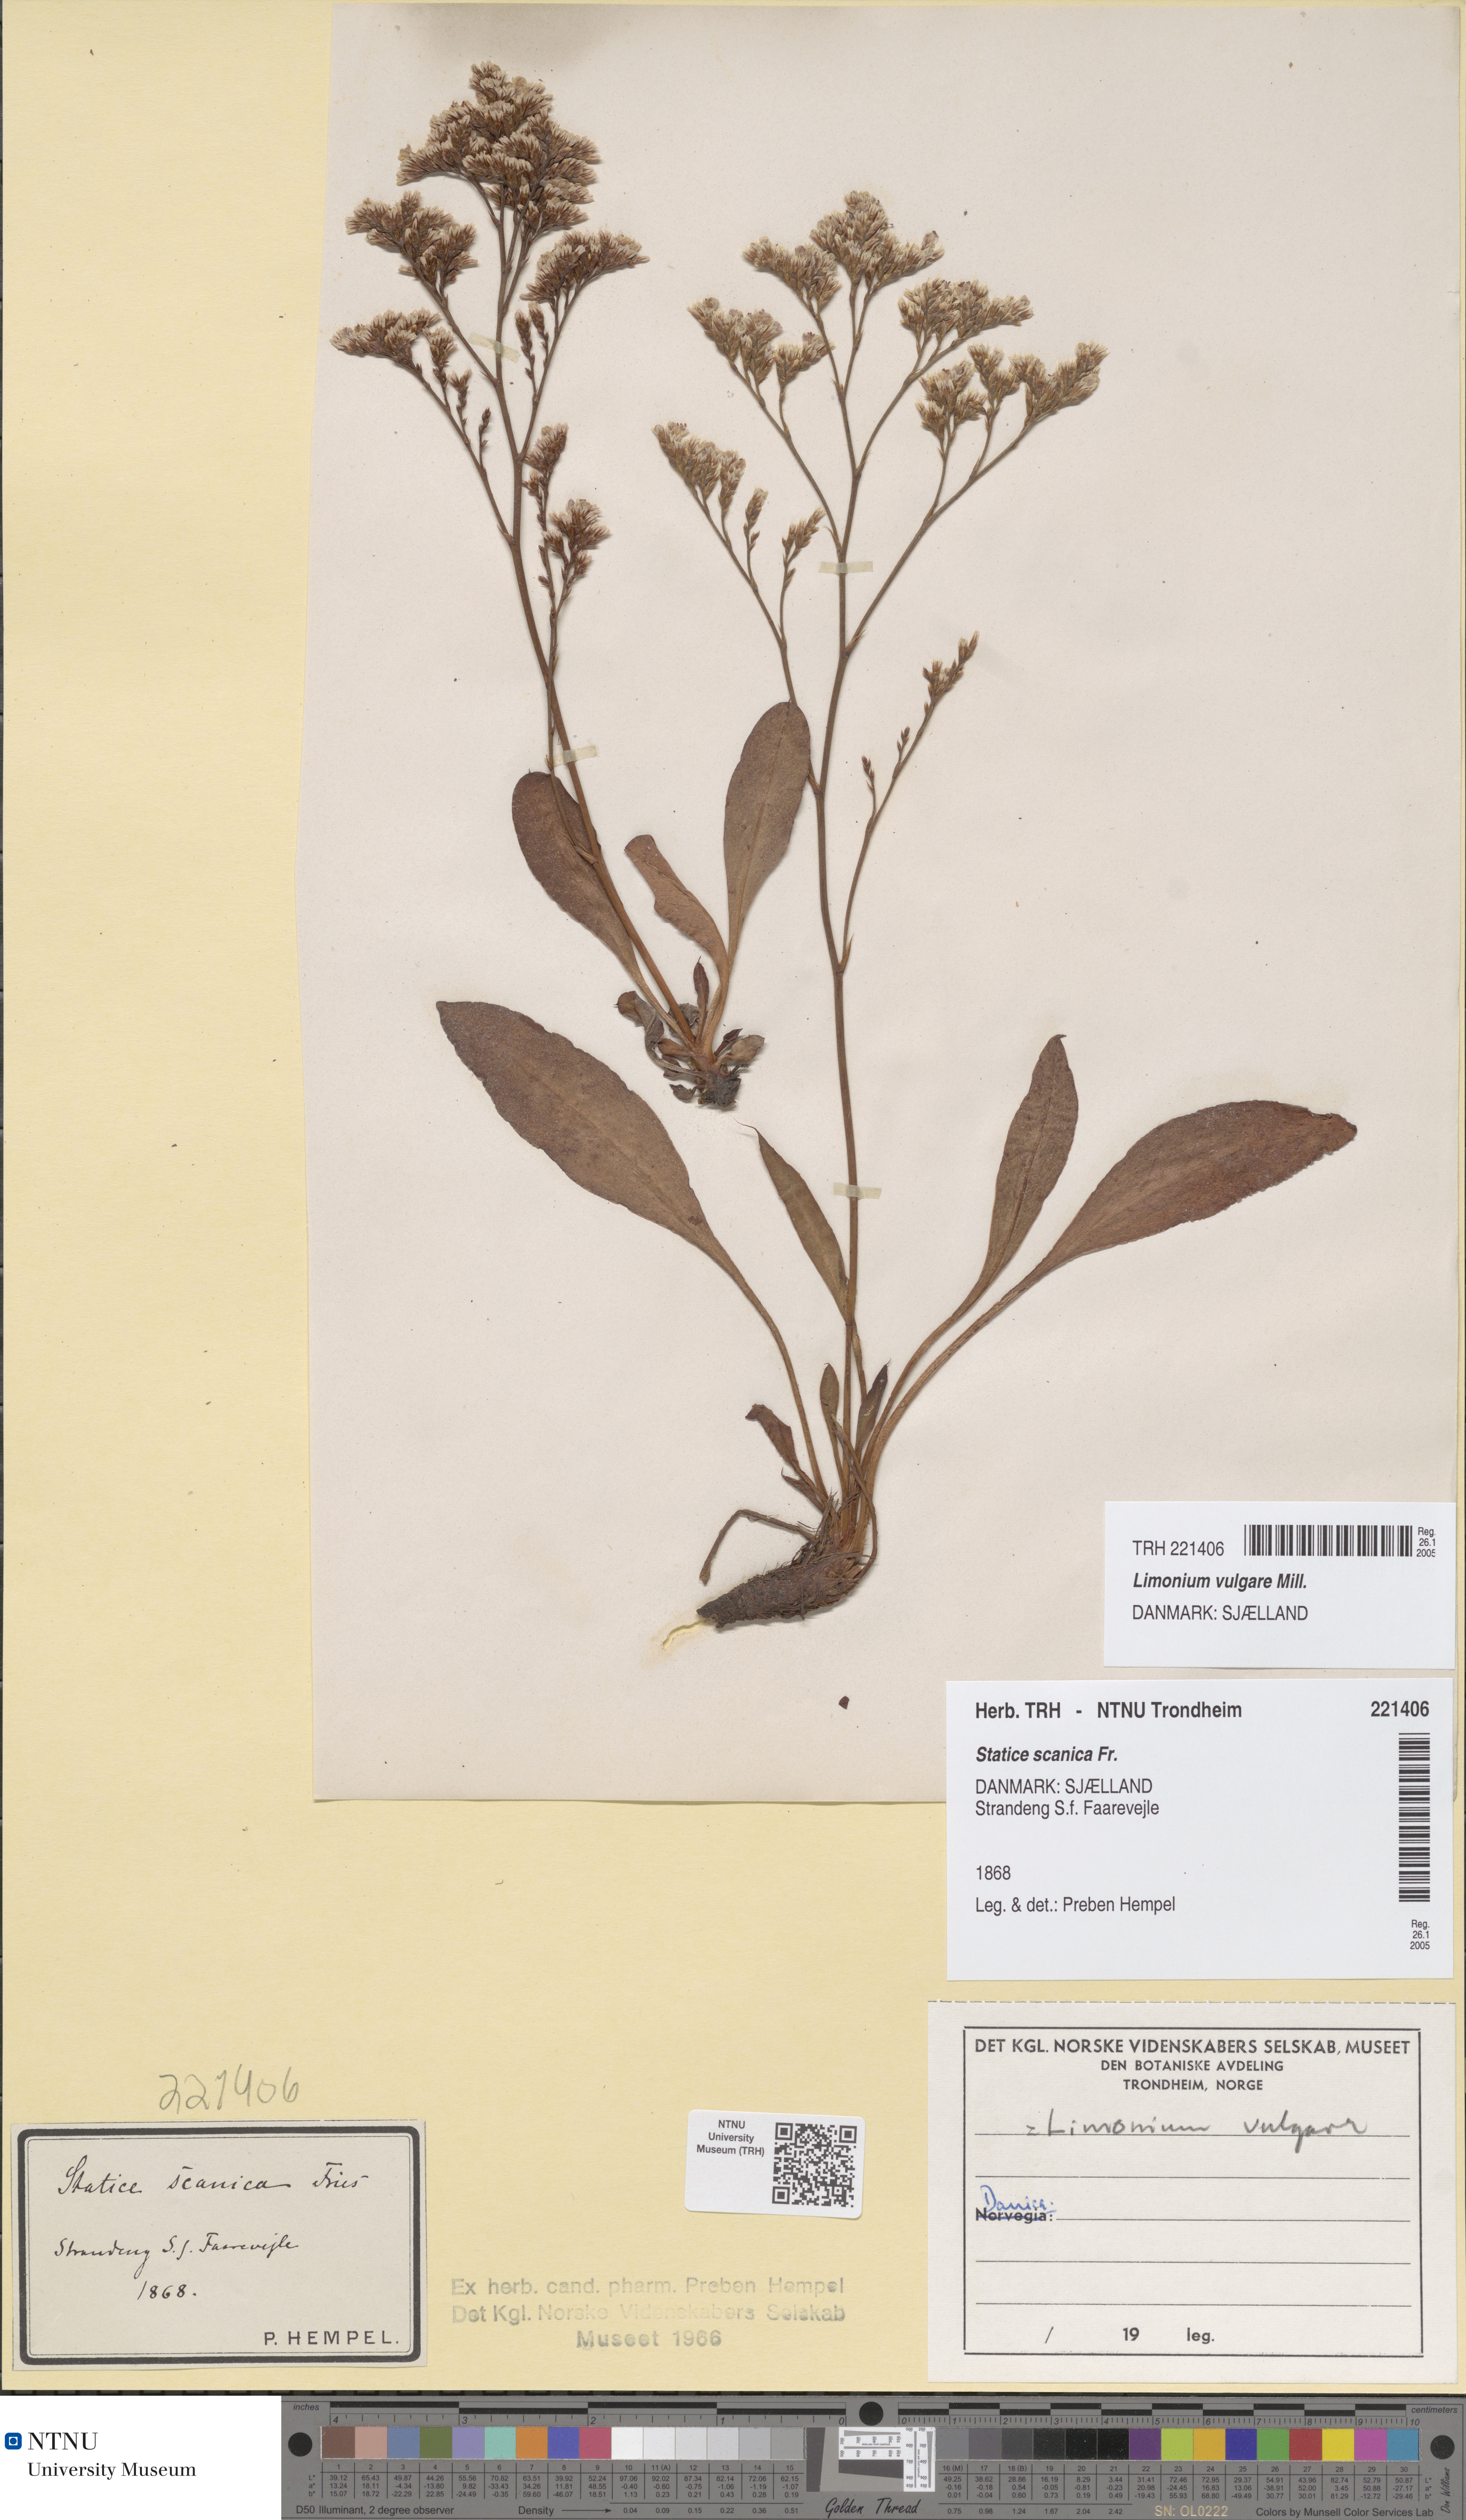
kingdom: Plantae
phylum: Tracheophyta
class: Magnoliopsida
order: Caryophyllales
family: Plumbaginaceae
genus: Limonium
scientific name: Limonium vulgare
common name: Common sea-lavender
